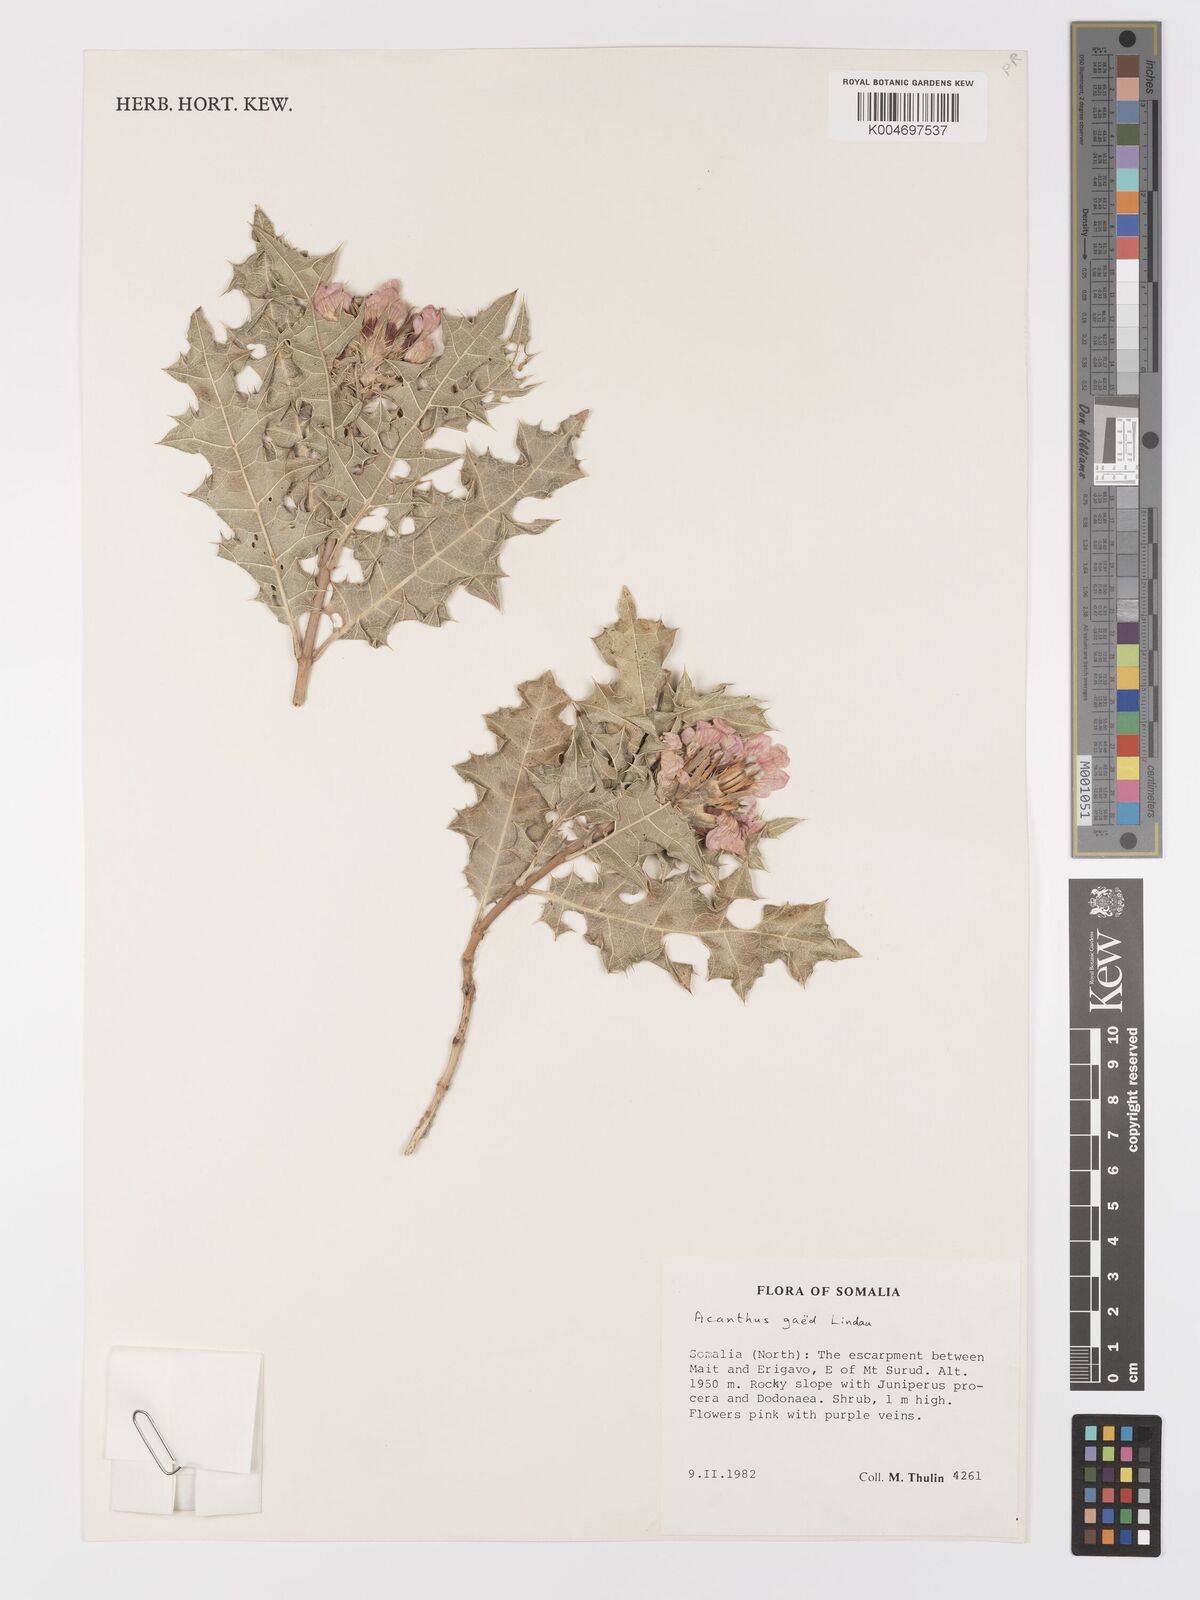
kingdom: Plantae
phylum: Tracheophyta
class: Magnoliopsida
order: Lamiales
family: Acanthaceae
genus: Acanthus
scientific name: Acanthus gaed
